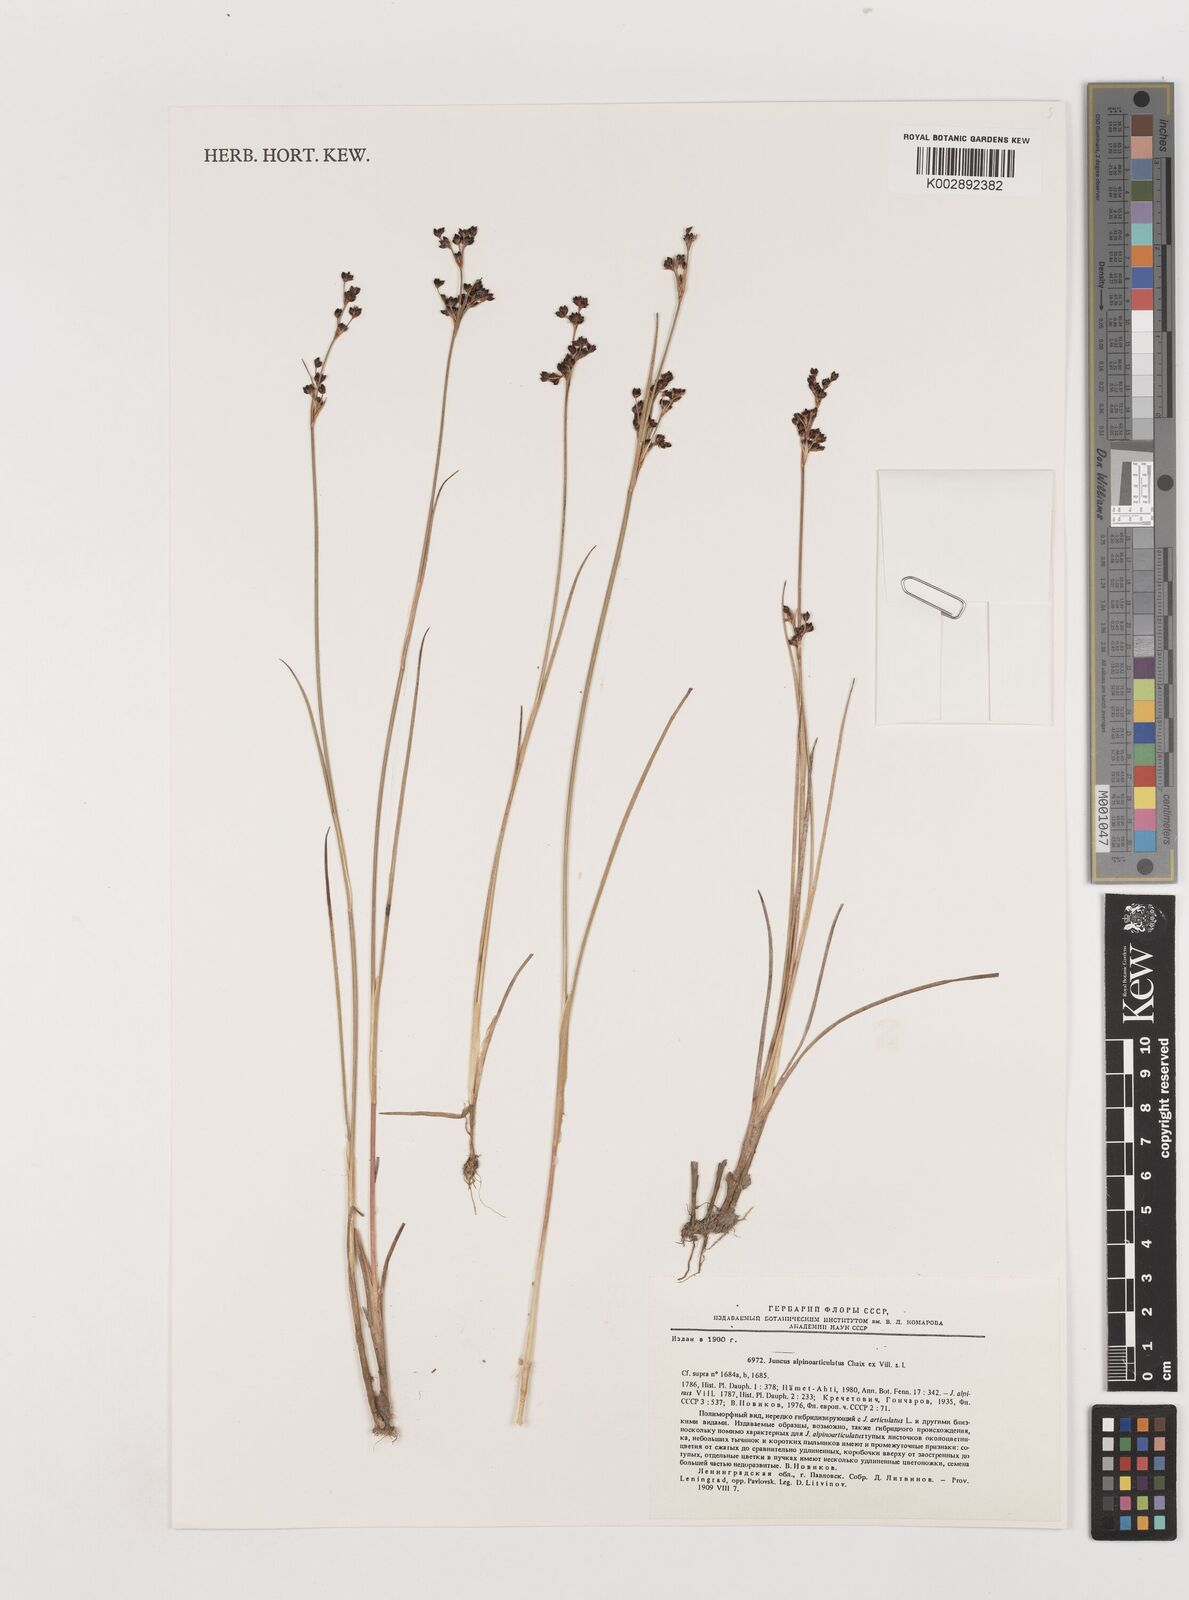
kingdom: Plantae
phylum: Tracheophyta
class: Liliopsida
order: Poales
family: Juncaceae
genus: Juncus
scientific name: Juncus alpinoarticulatus
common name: Alpine rush
